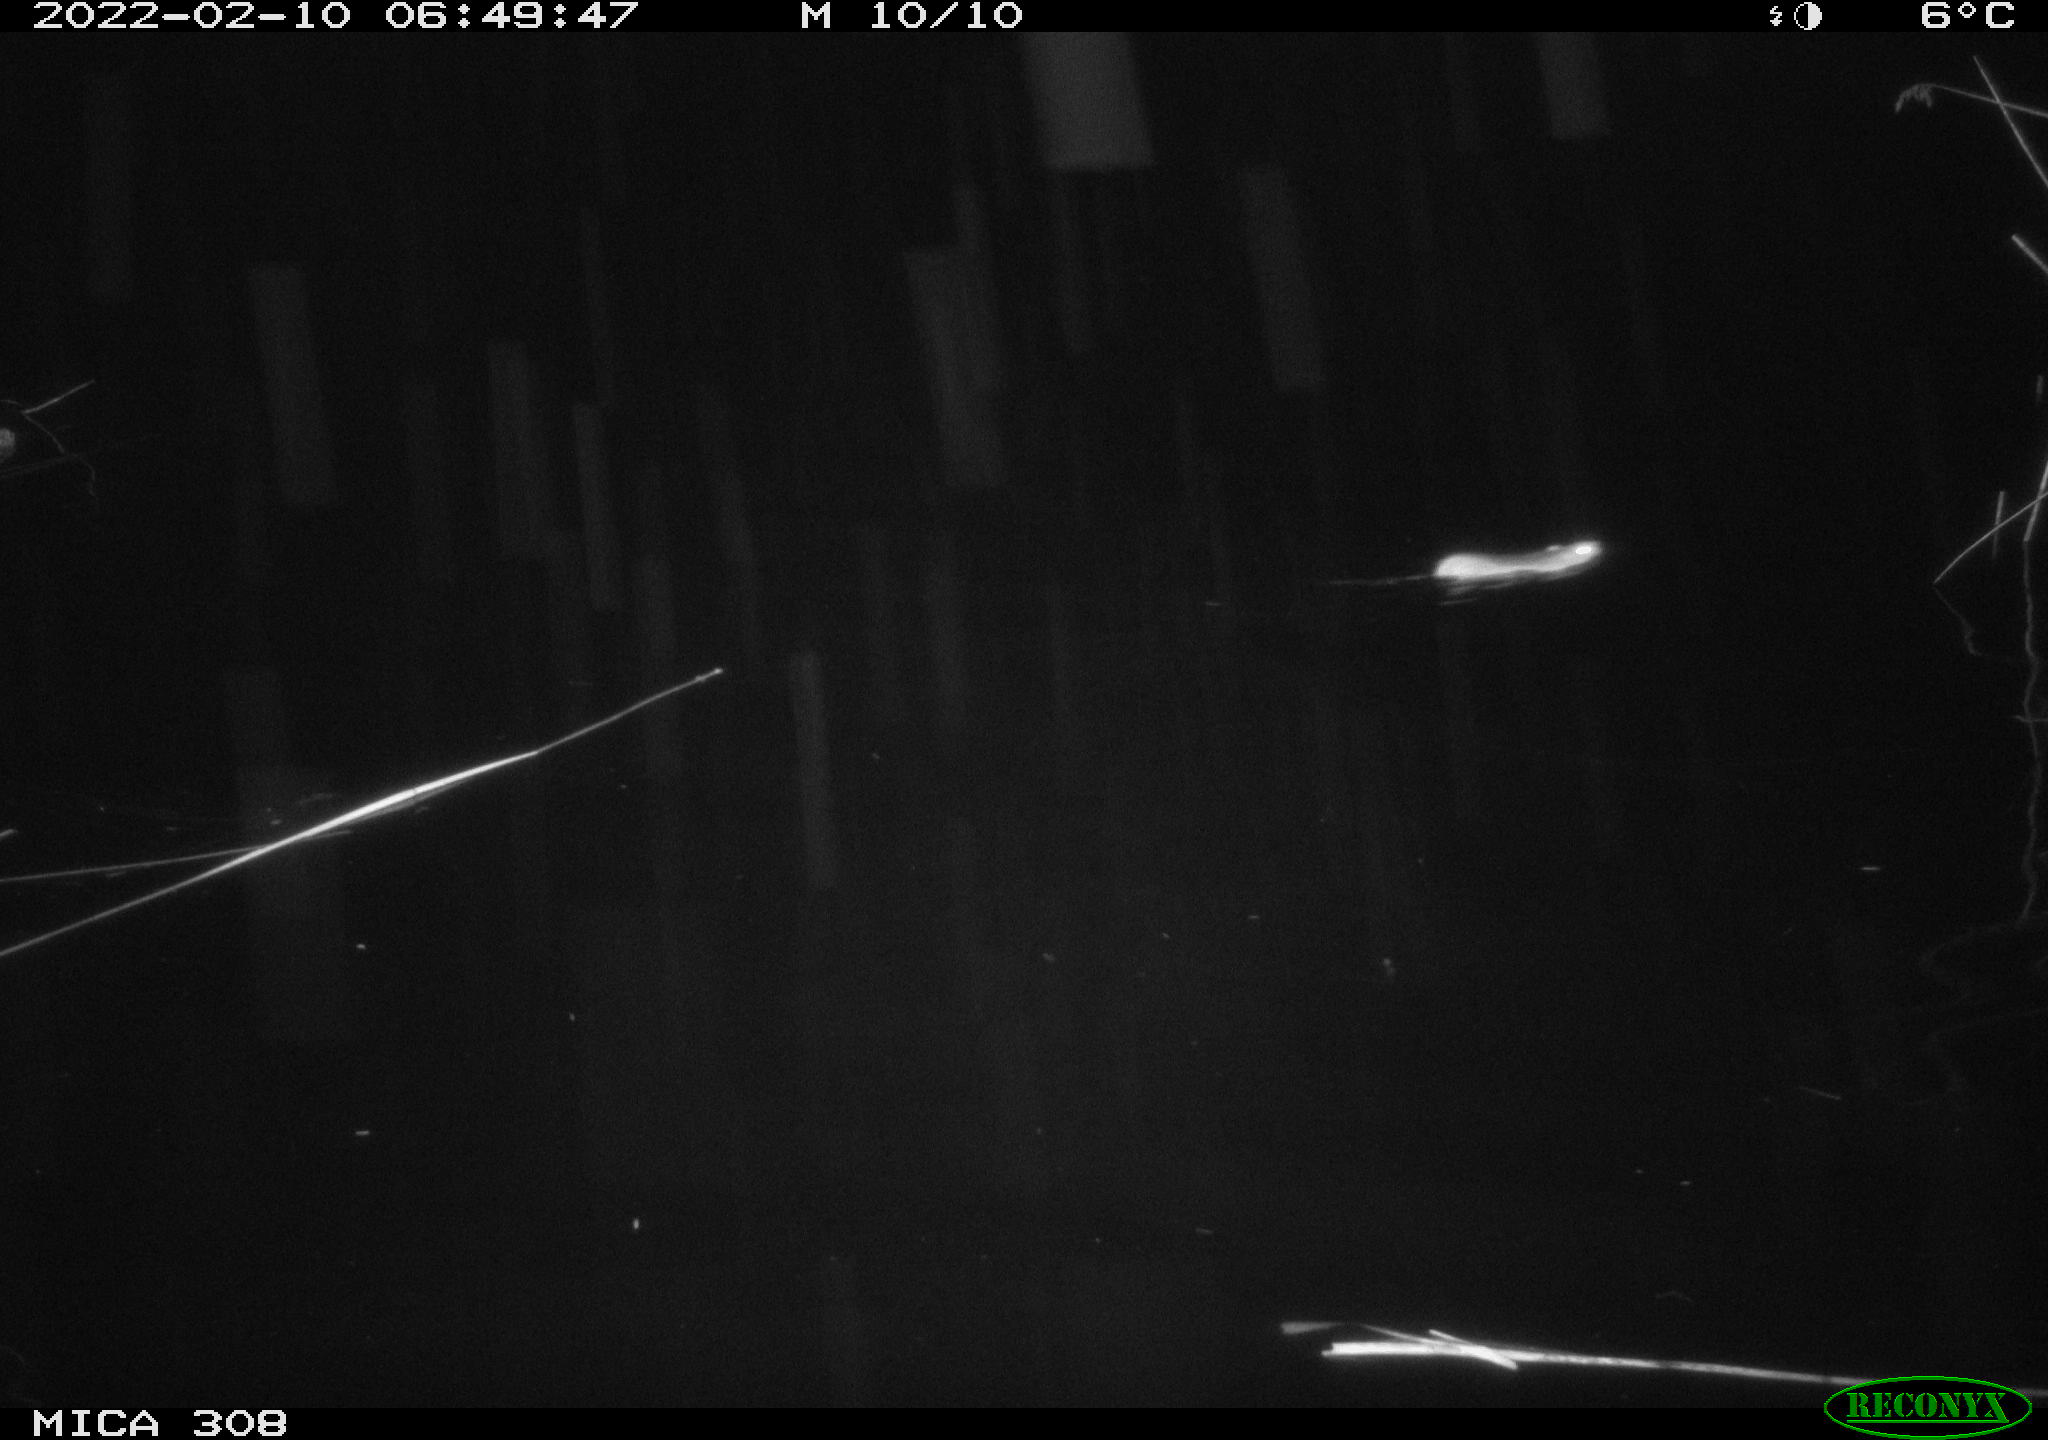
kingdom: Animalia
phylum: Chordata
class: Mammalia
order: Rodentia
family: Muridae
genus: Rattus
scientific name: Rattus norvegicus
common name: Brown rat
